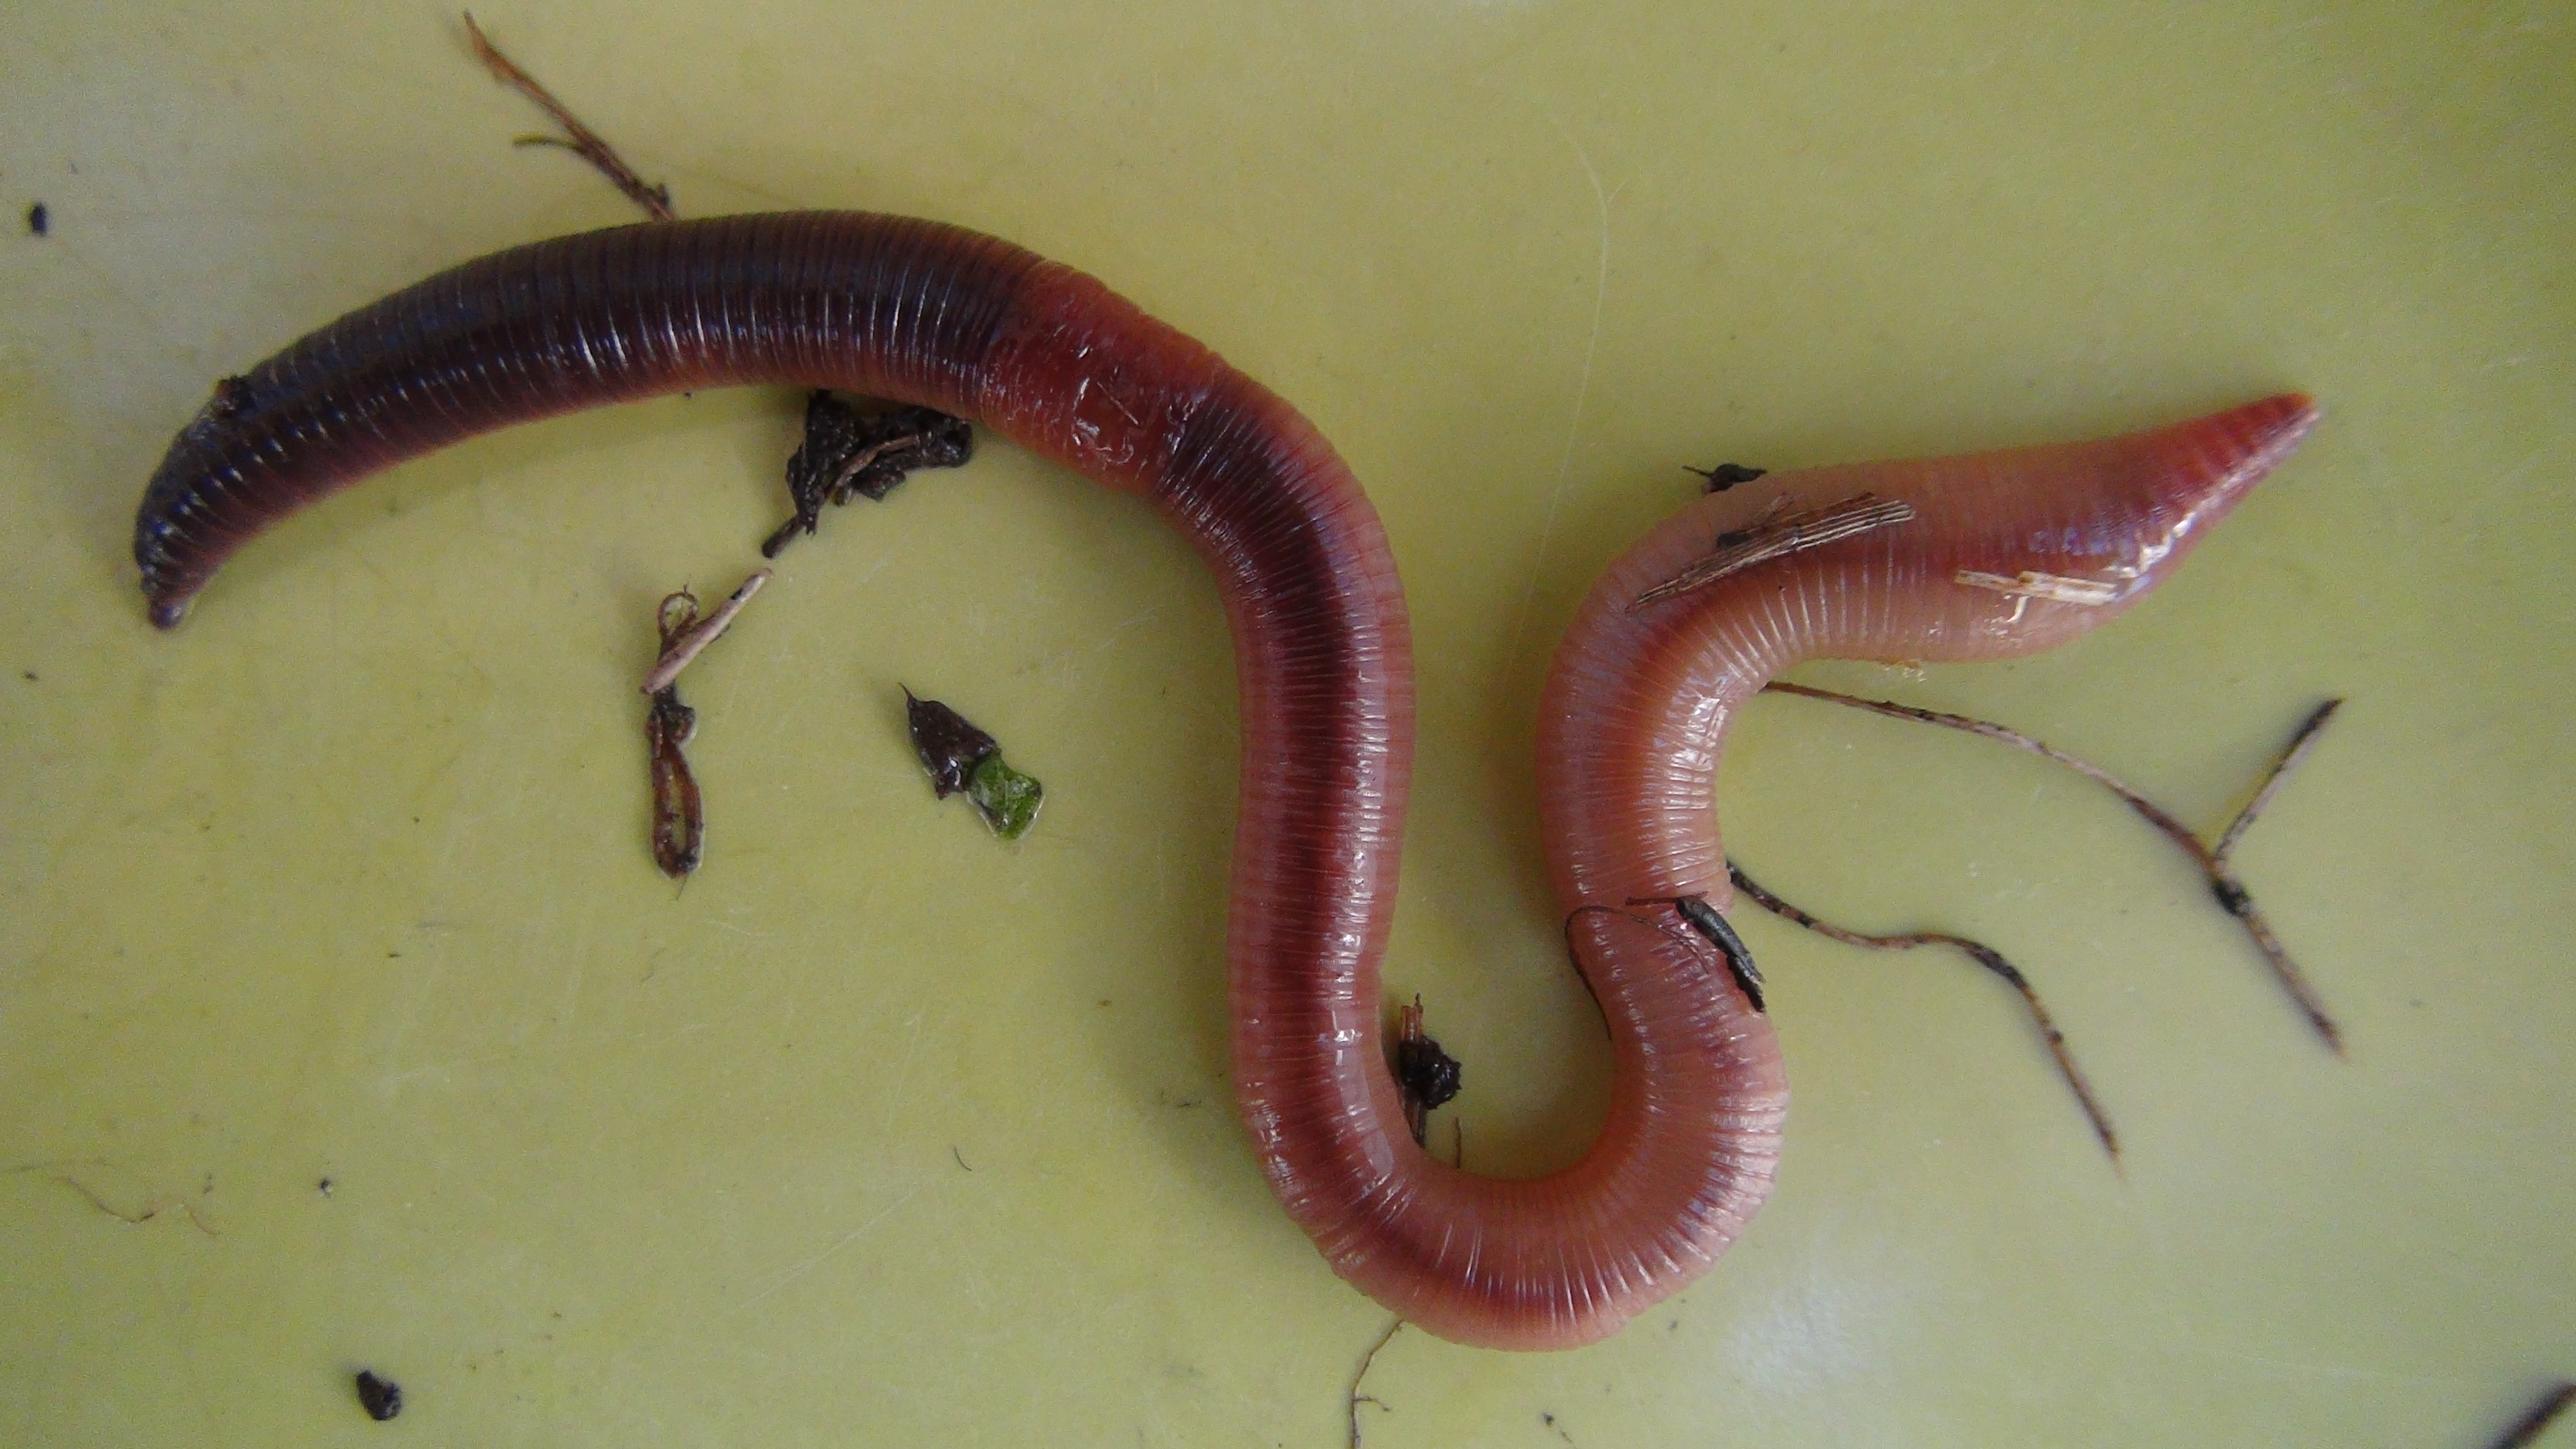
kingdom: Animalia
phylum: Annelida
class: Clitellata
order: Crassiclitellata
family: Lumbricidae
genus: Lumbricus
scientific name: Lumbricus terrestris
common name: Common earthworm
